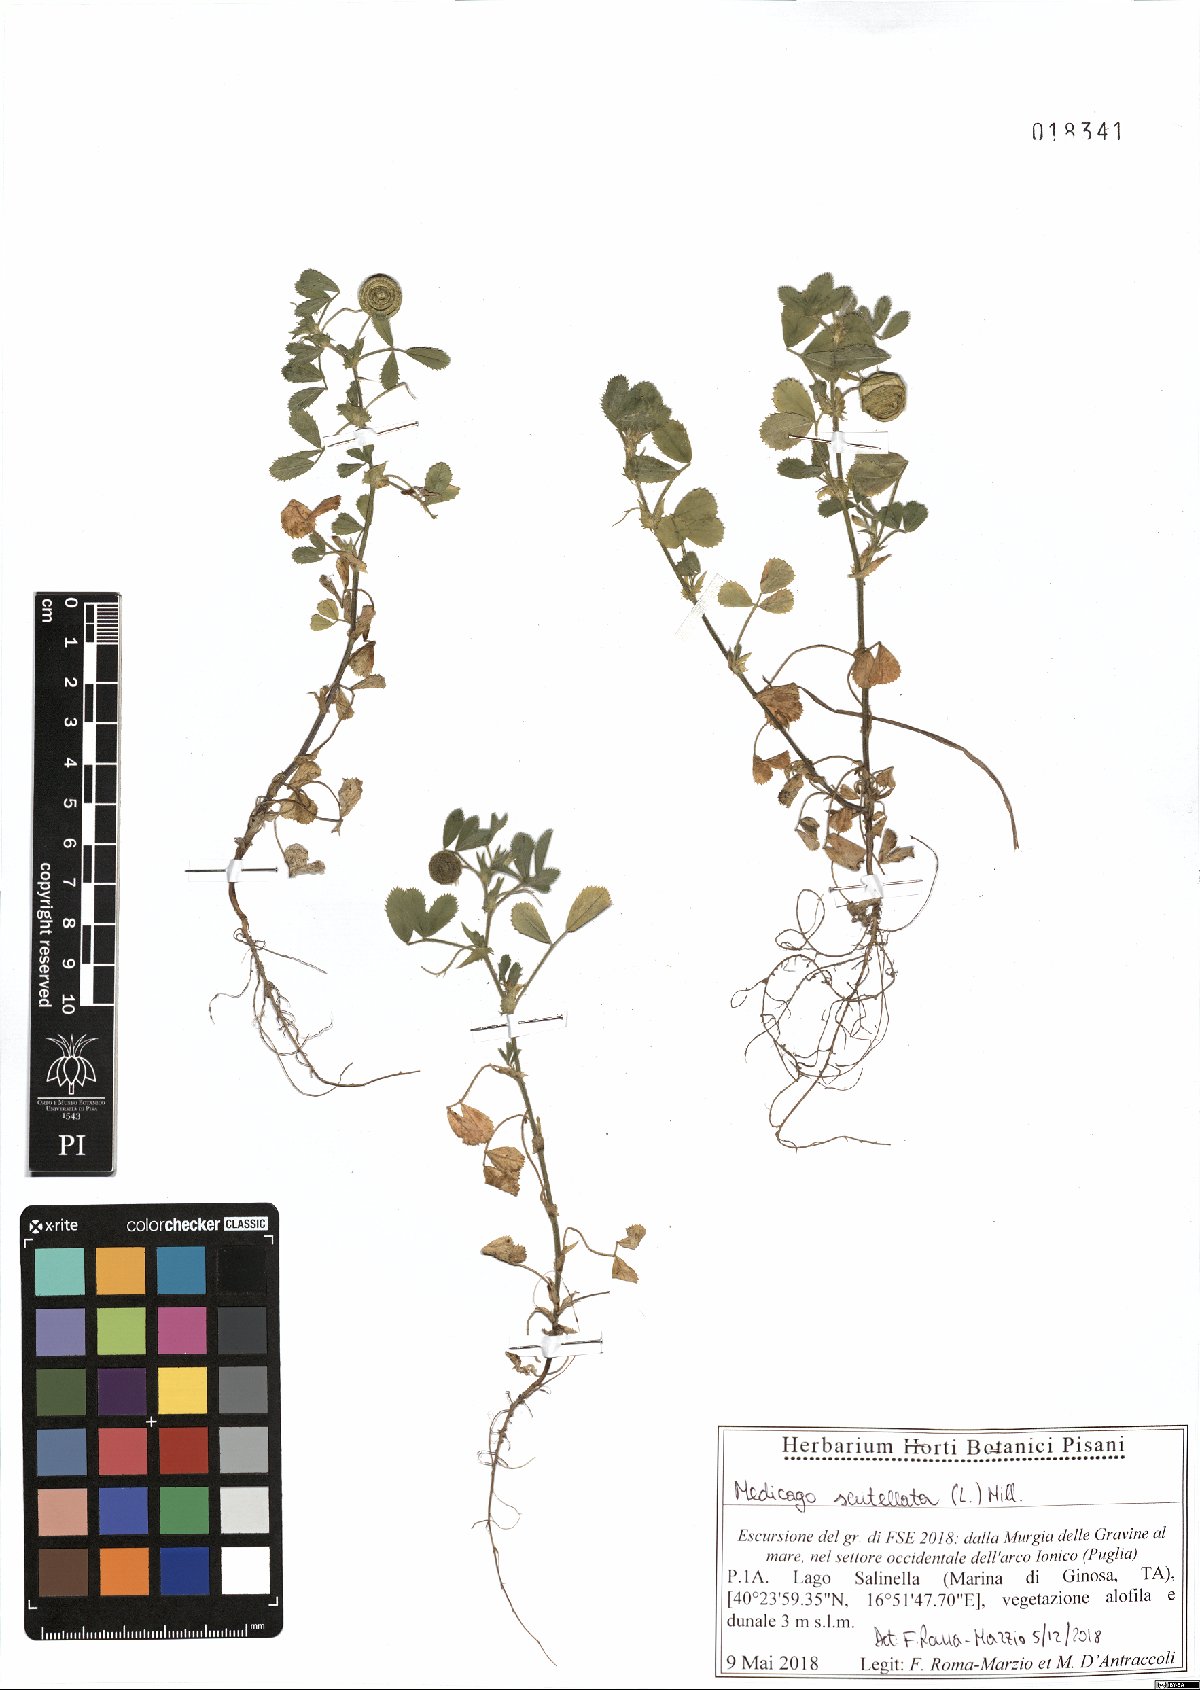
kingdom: Plantae
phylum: Tracheophyta
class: Magnoliopsida
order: Fabales
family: Fabaceae
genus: Medicago
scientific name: Medicago scutellata
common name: Snail medick
